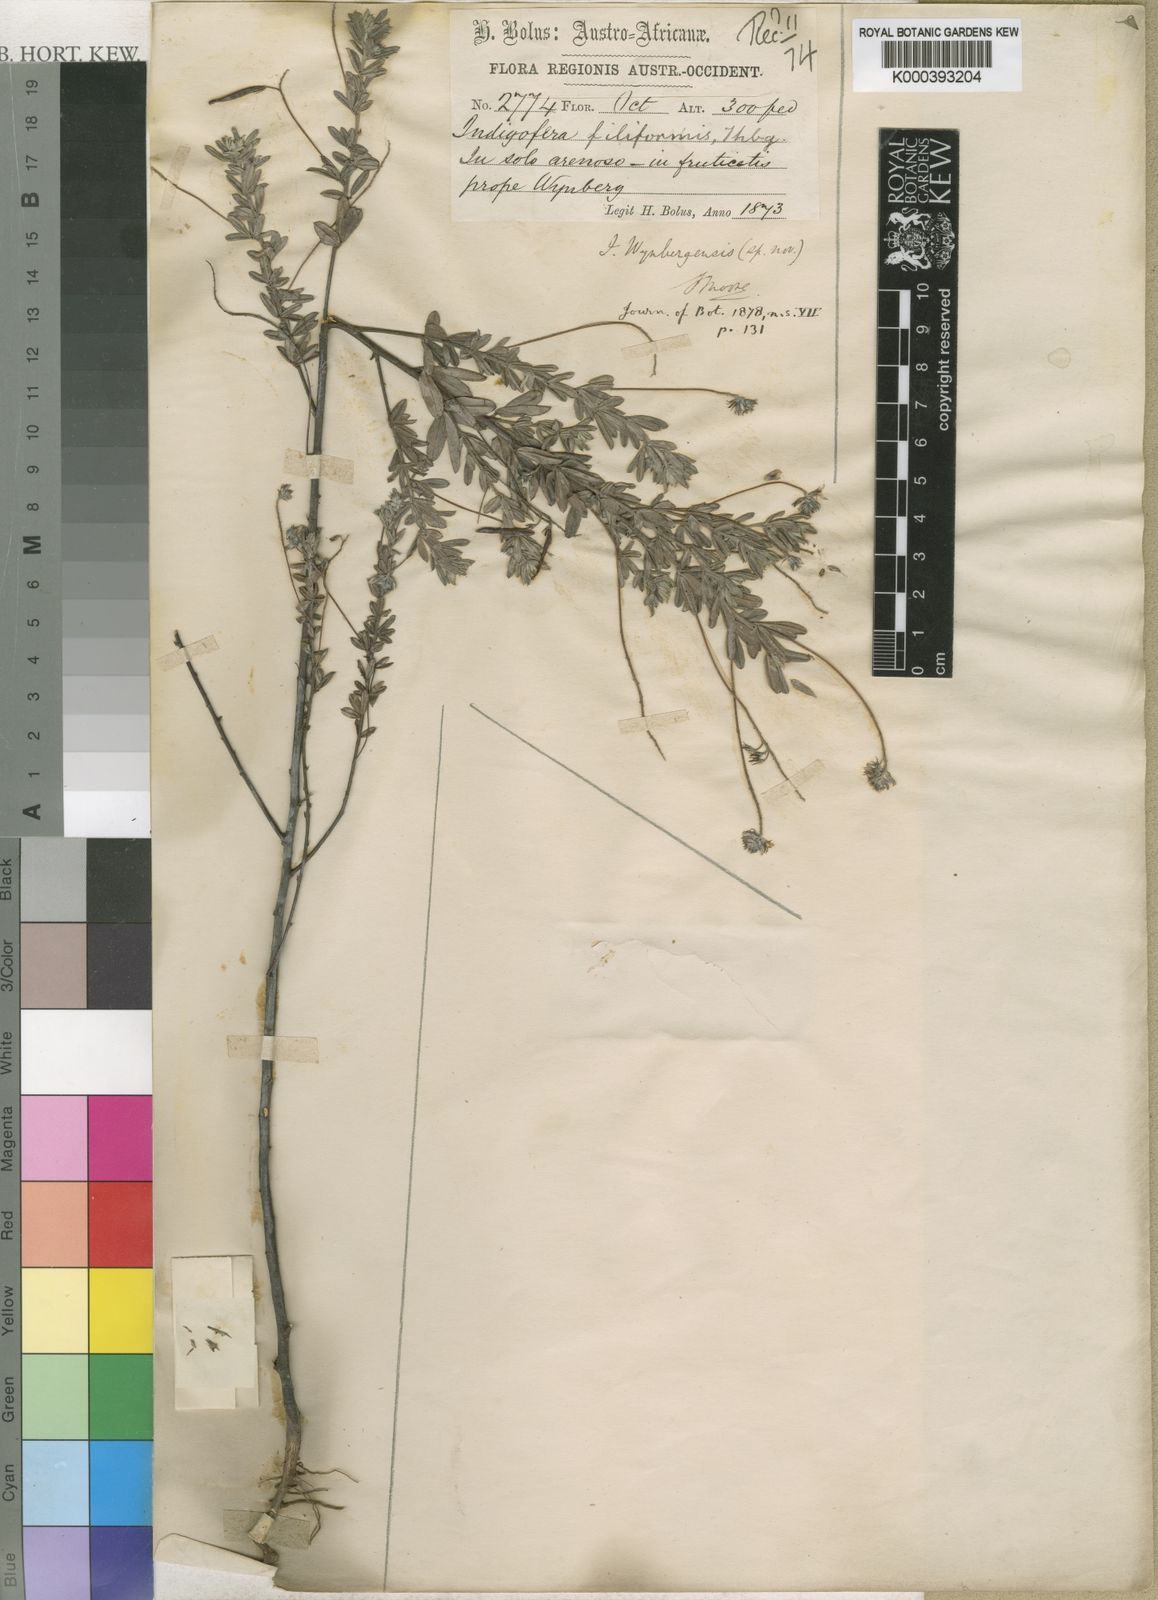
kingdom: Plantae
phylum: Tracheophyta
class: Magnoliopsida
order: Fabales
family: Fabaceae
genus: Indigofera
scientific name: Indigofera filiformis
